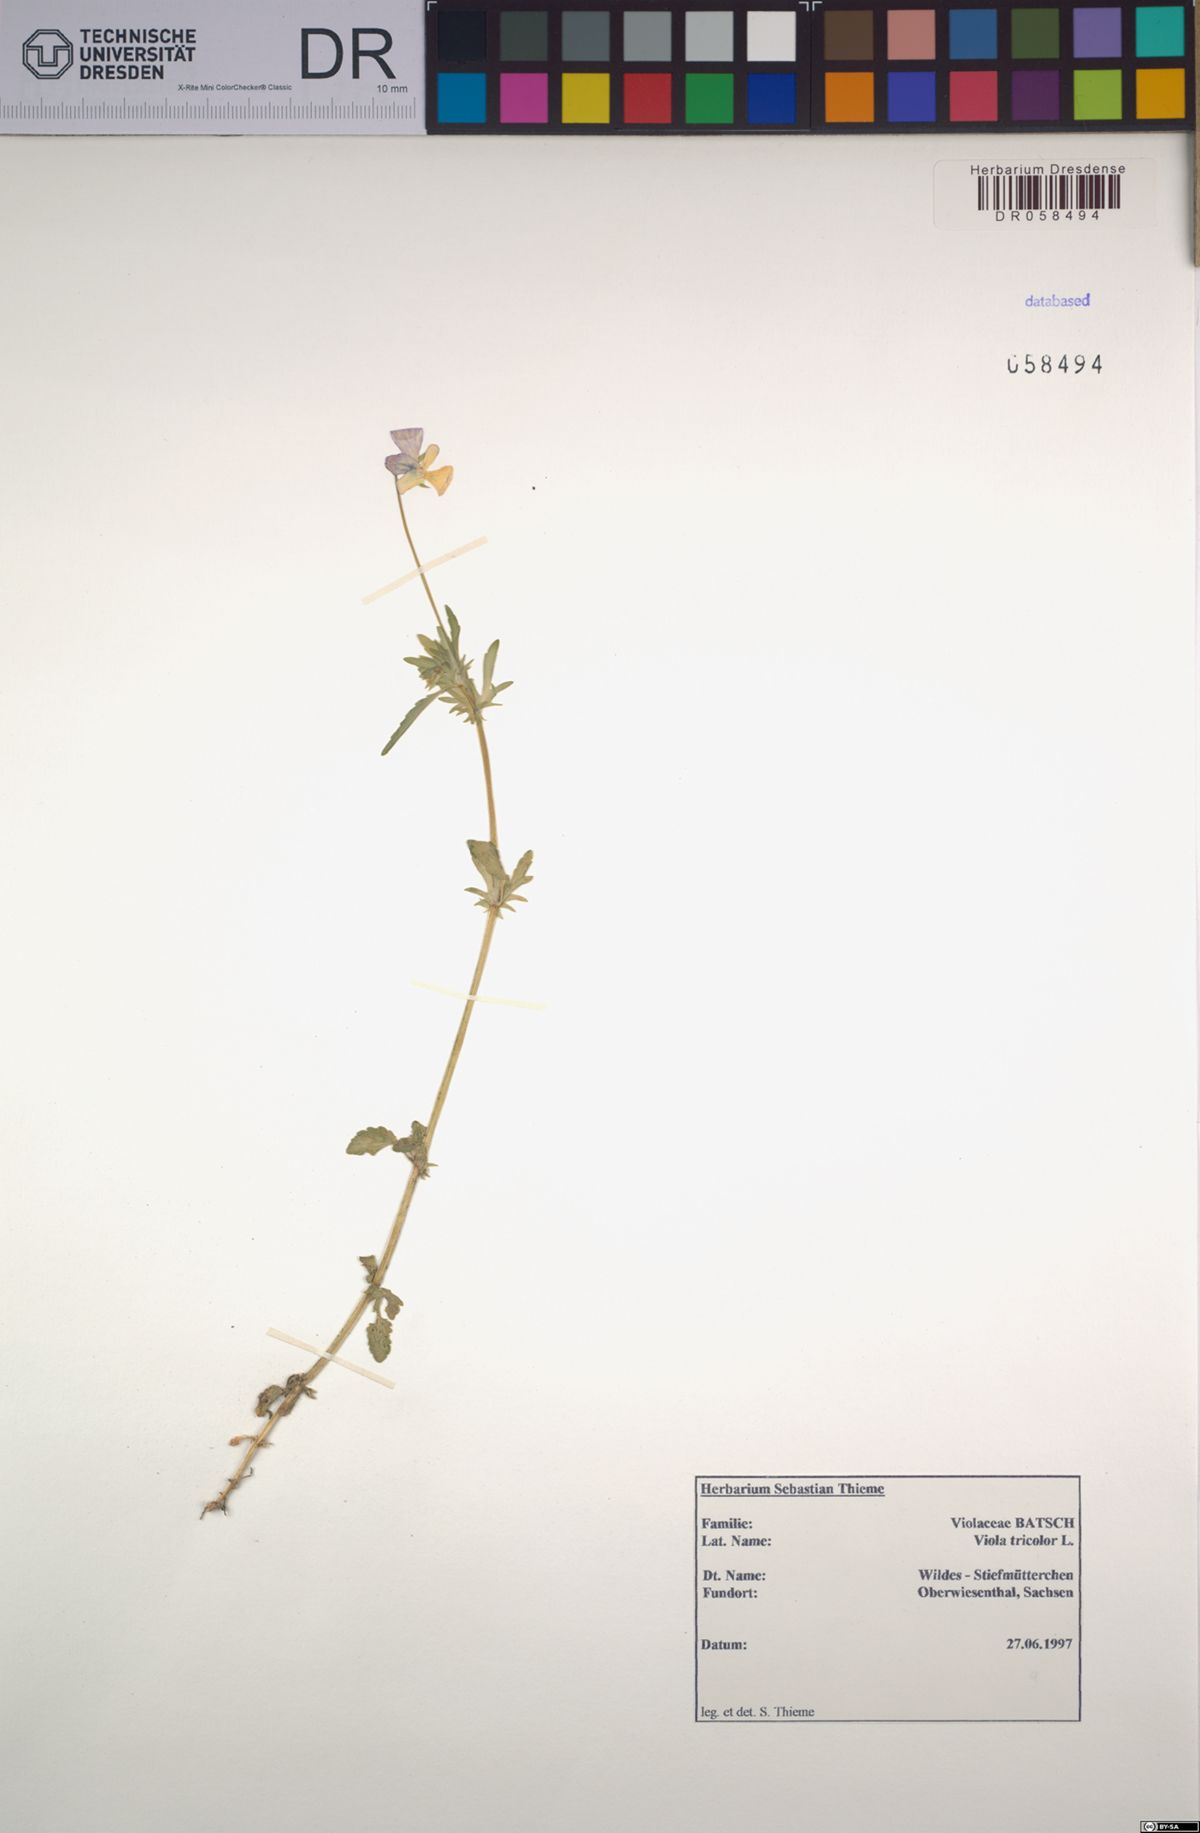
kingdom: Plantae
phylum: Tracheophyta
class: Magnoliopsida
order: Malpighiales
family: Violaceae
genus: Viola
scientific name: Viola tricolor
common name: Pansy
